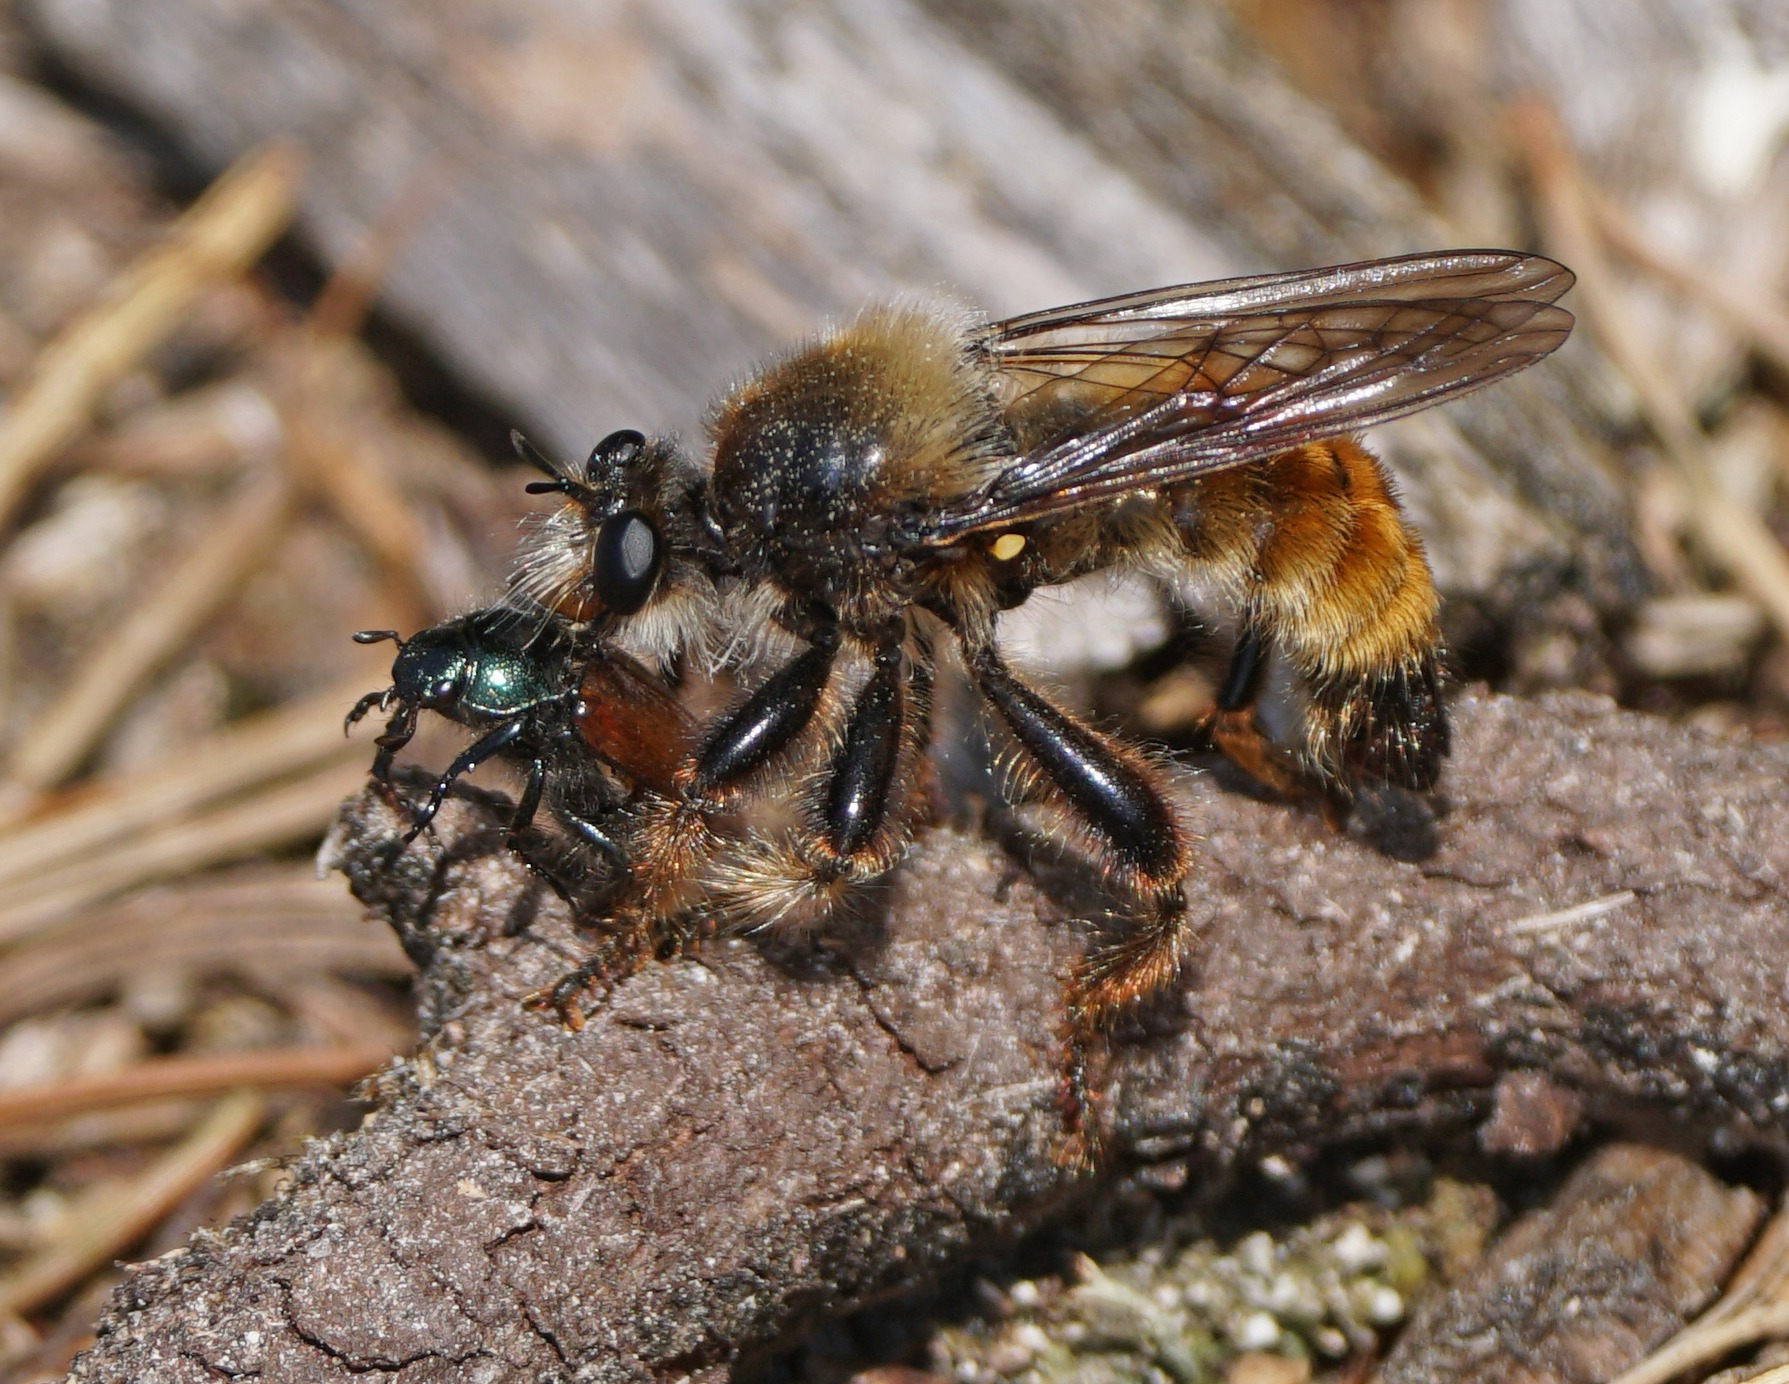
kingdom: Animalia
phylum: Arthropoda
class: Insecta
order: Diptera
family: Asilidae
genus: Laphria
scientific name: Laphria flava
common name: Gul vedrovflue
